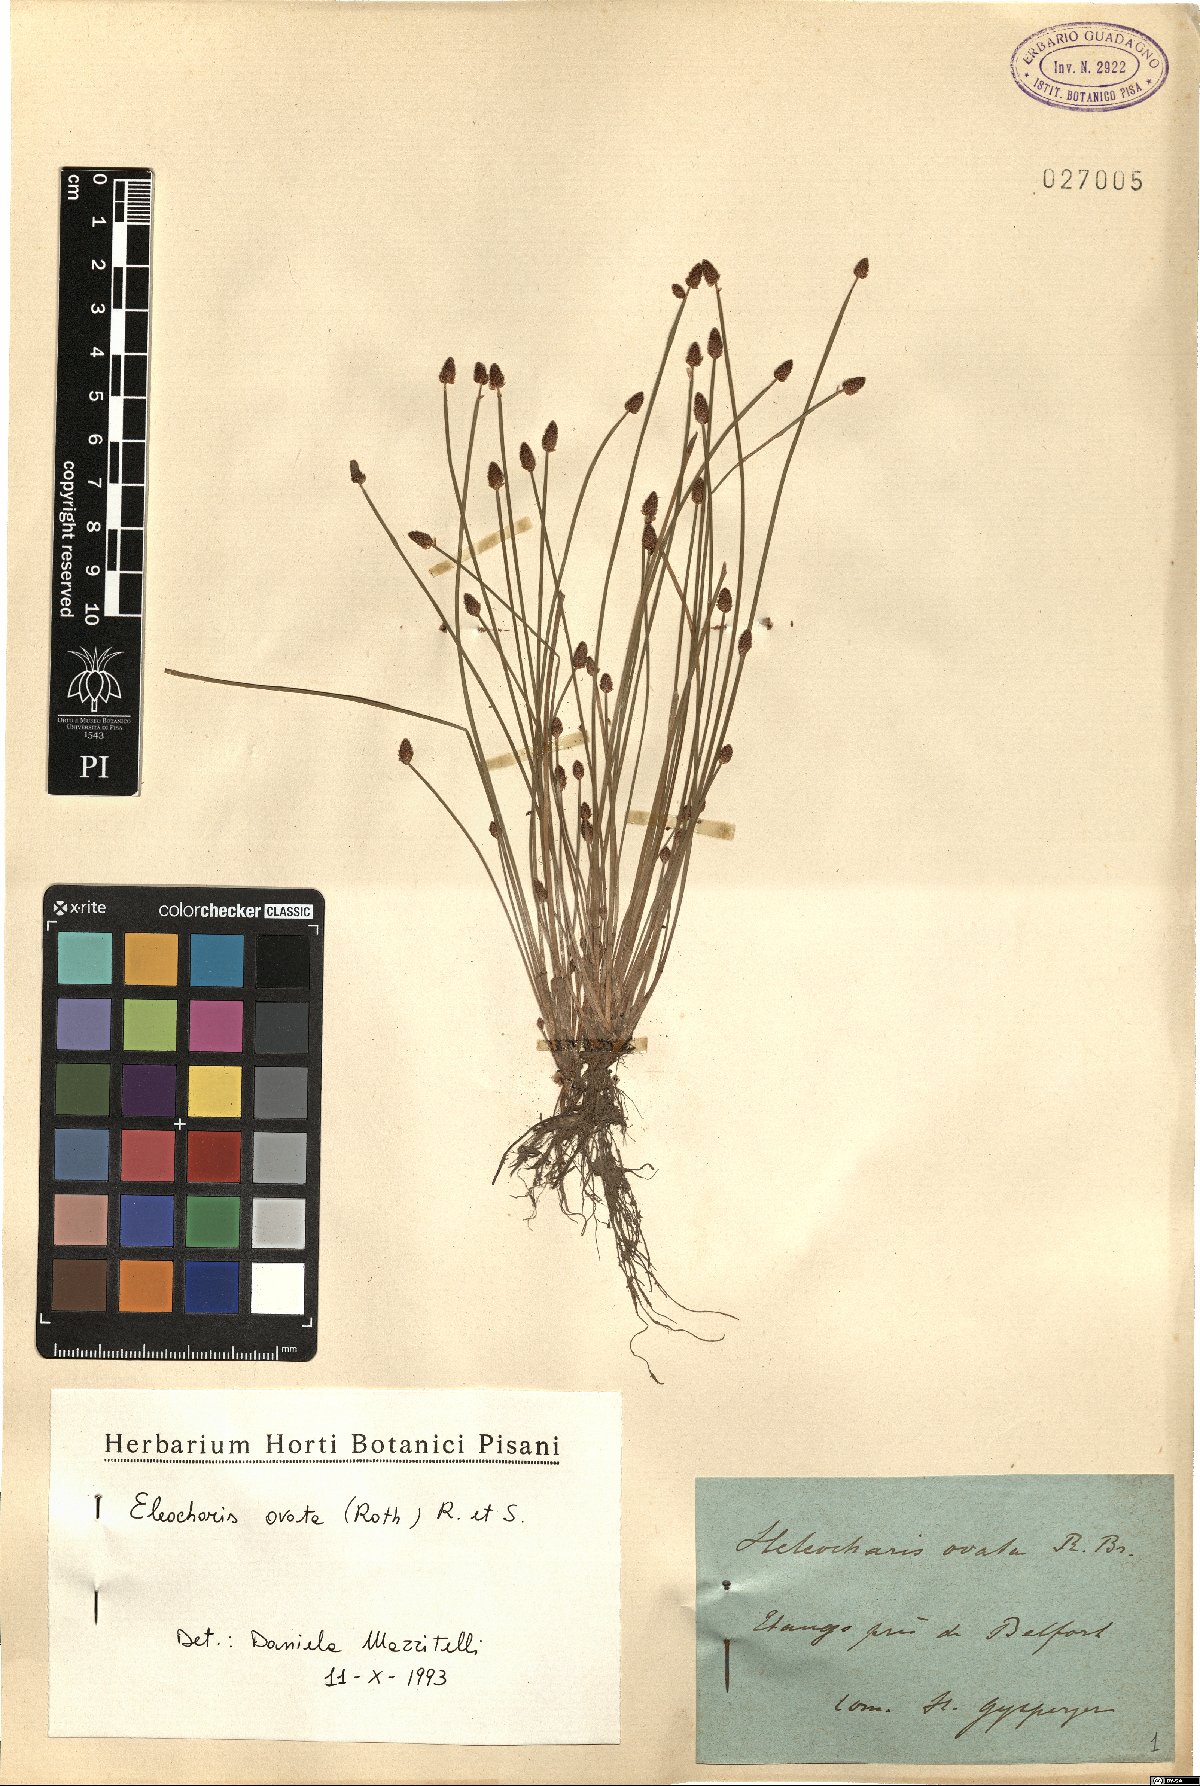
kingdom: Plantae
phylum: Tracheophyta
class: Liliopsida
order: Poales
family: Cyperaceae
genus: Eleocharis
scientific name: Eleocharis ovata
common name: Oval spike-rush
